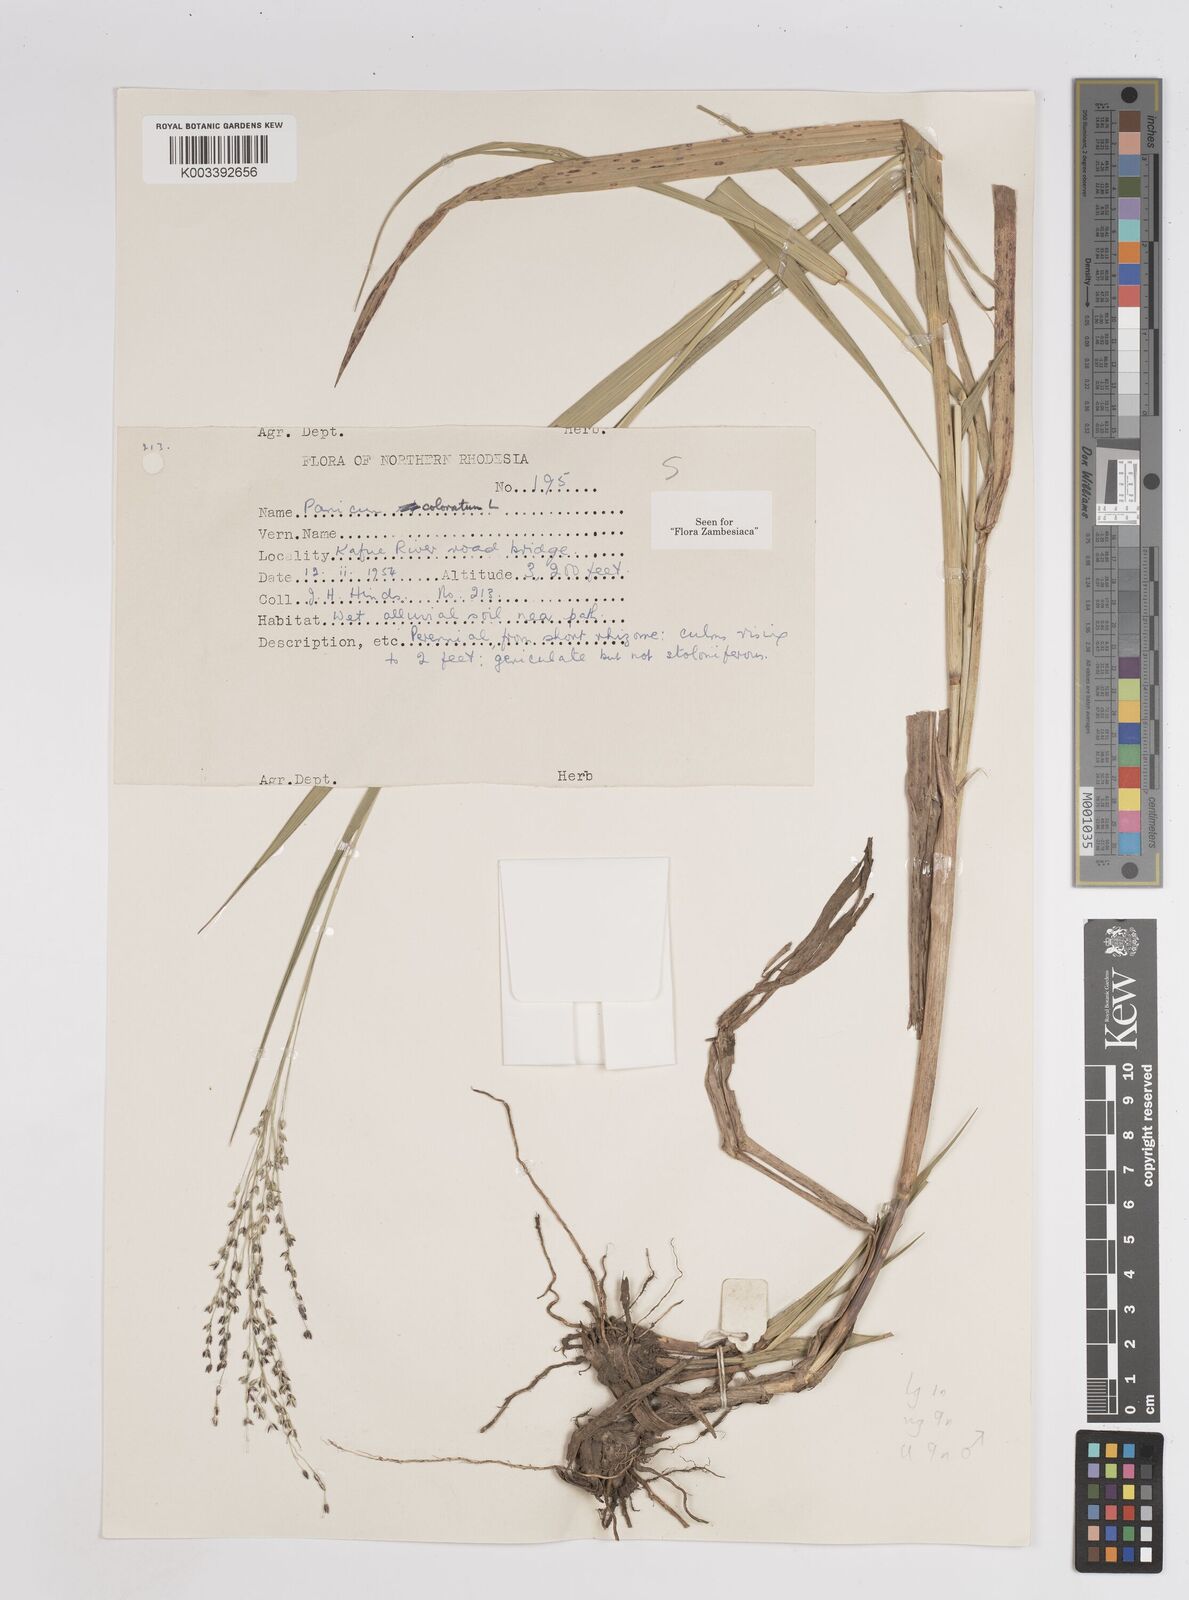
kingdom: Plantae
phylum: Tracheophyta
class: Liliopsida
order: Poales
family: Poaceae
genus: Panicum
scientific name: Panicum
